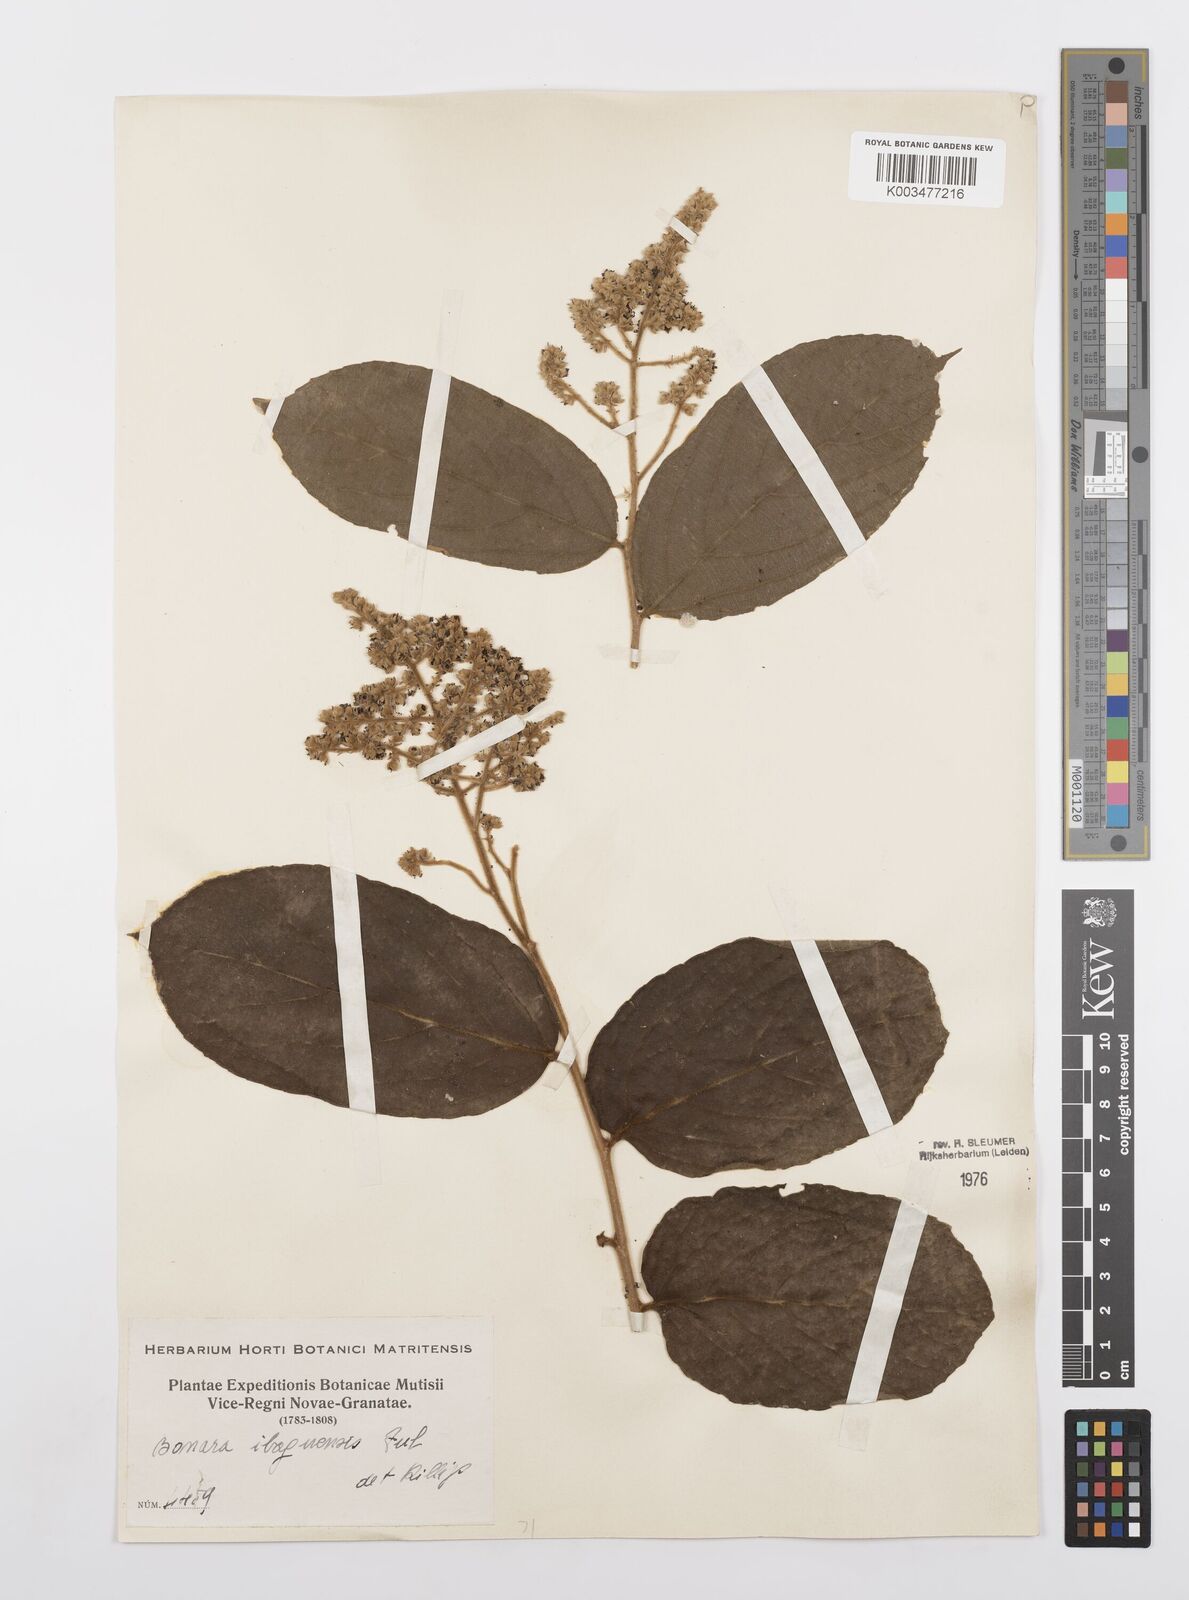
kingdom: Plantae
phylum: Tracheophyta
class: Magnoliopsida
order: Malpighiales
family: Salicaceae
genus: Banara
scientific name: Banara ibaguensis
